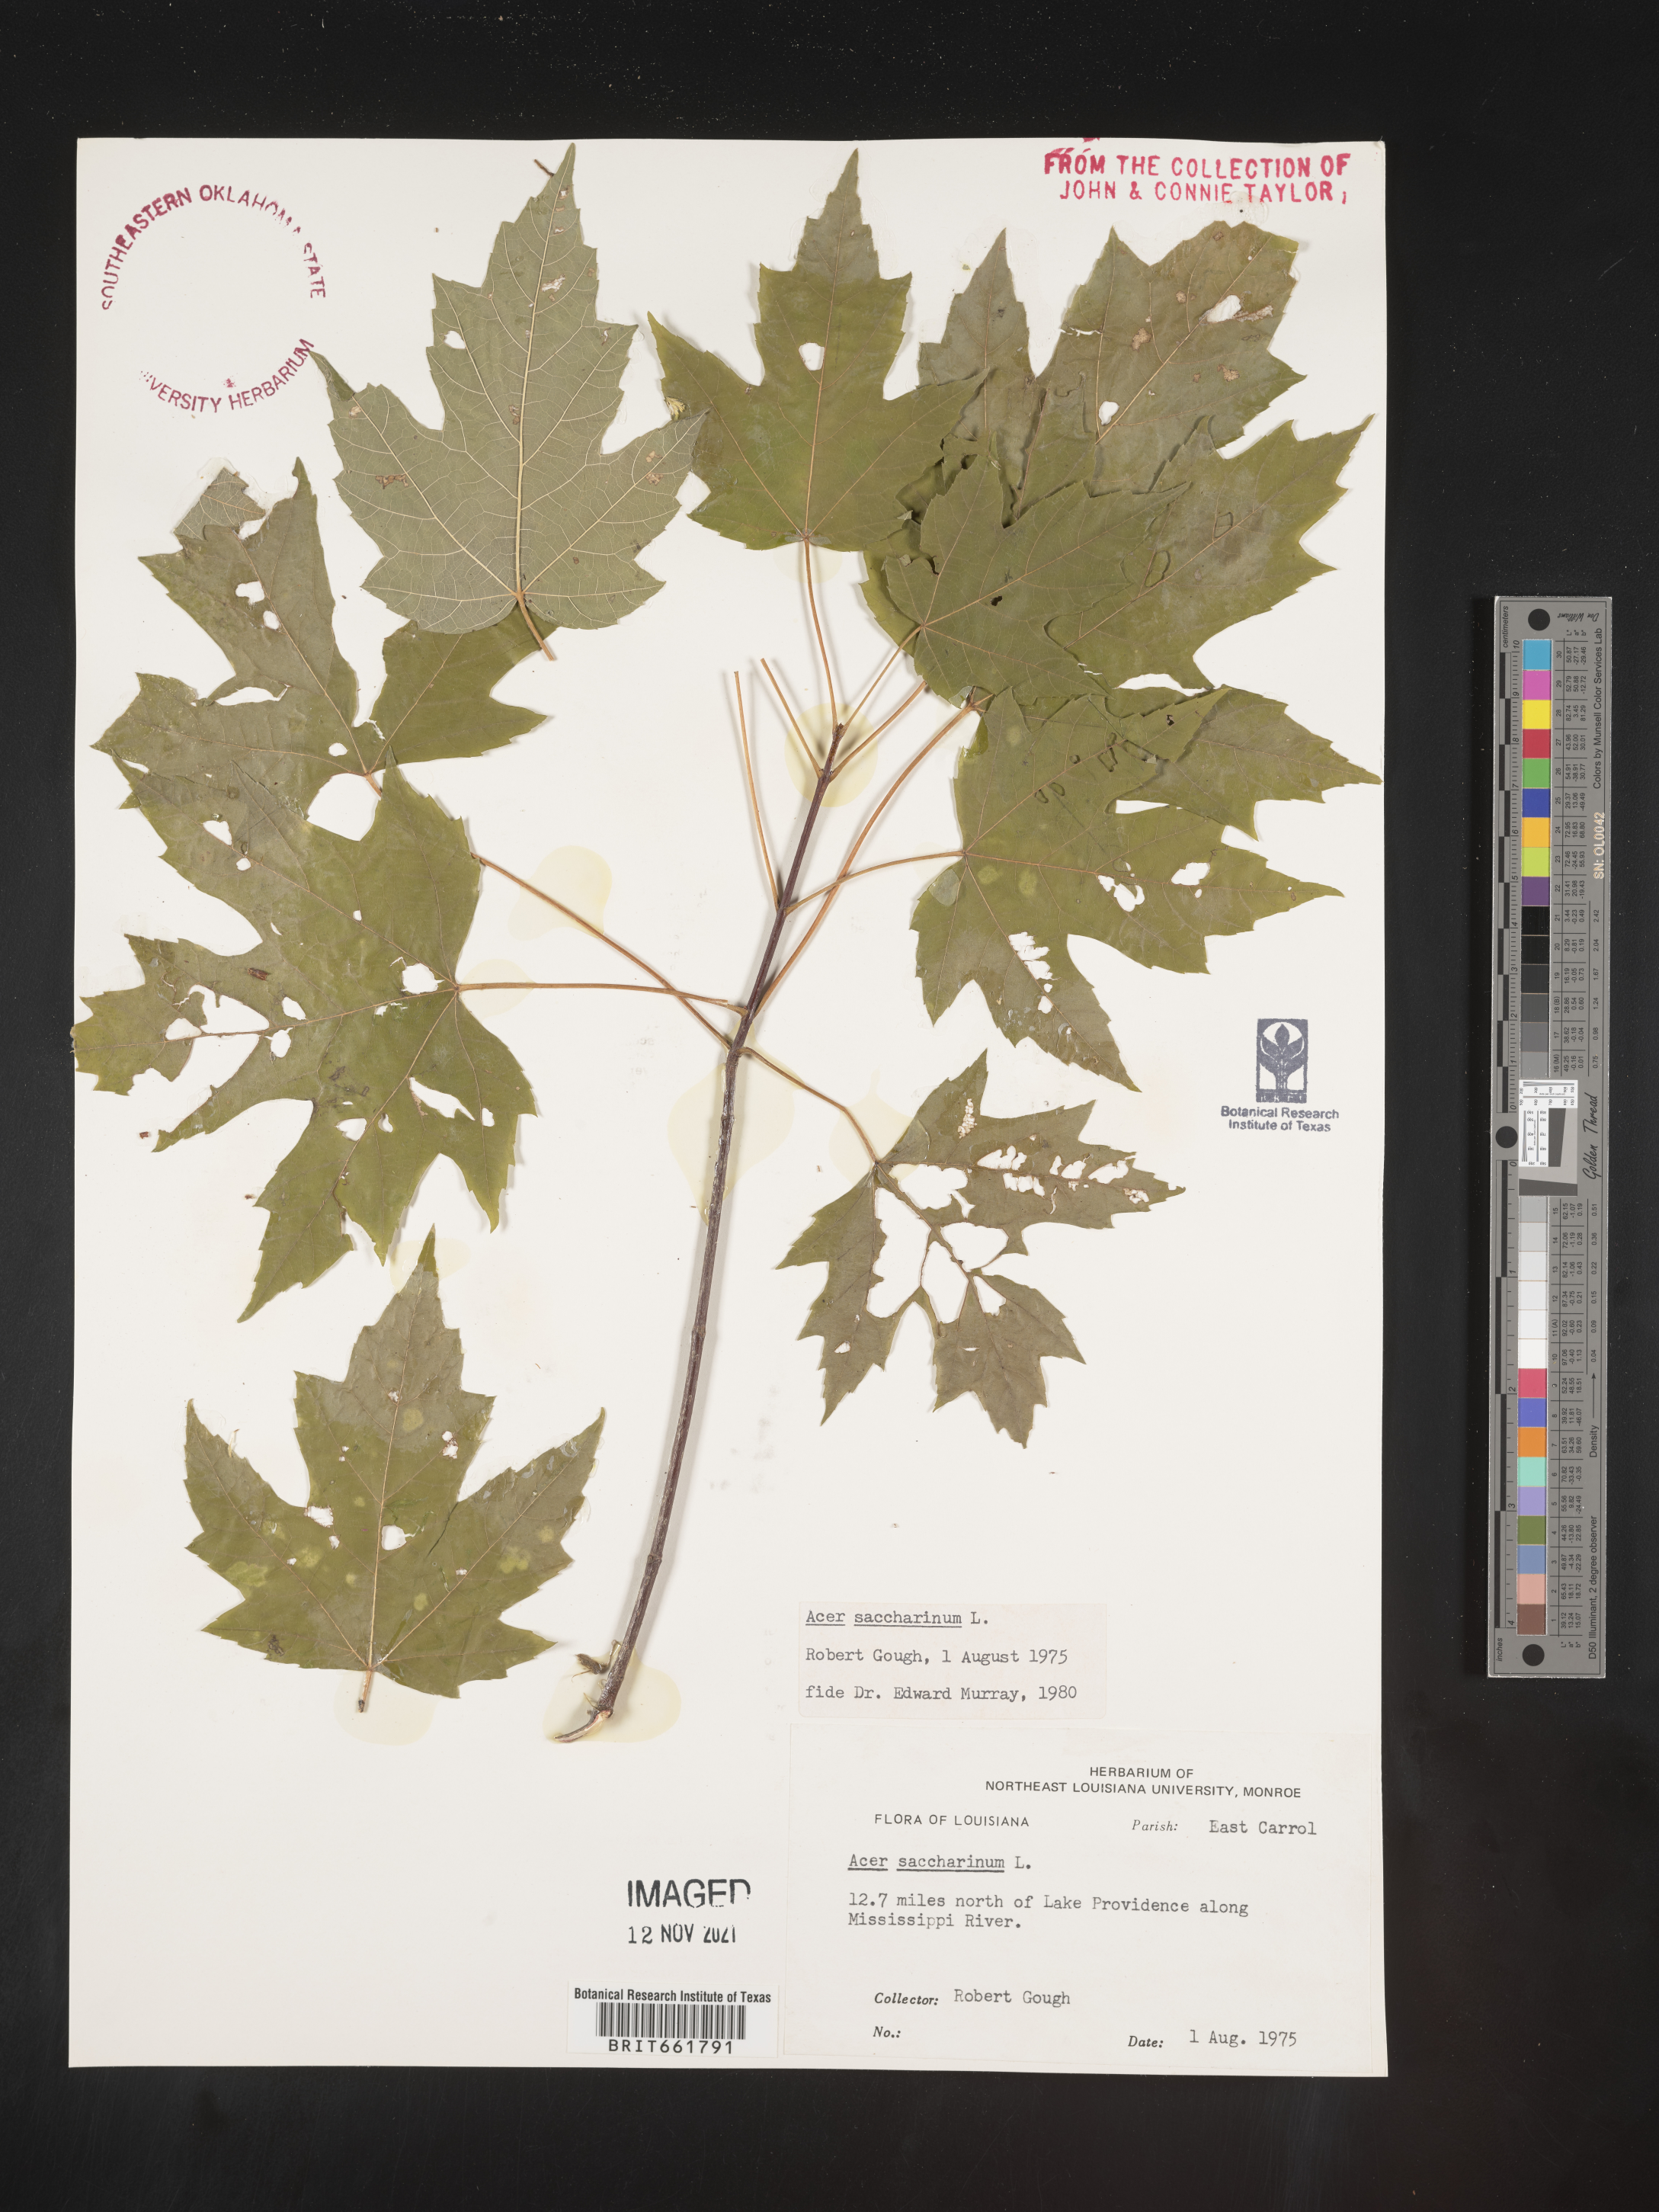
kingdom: Plantae
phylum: Tracheophyta
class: Magnoliopsida
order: Sapindales
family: Sapindaceae
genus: Acer
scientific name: Acer saccharinum
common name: Silver maple
